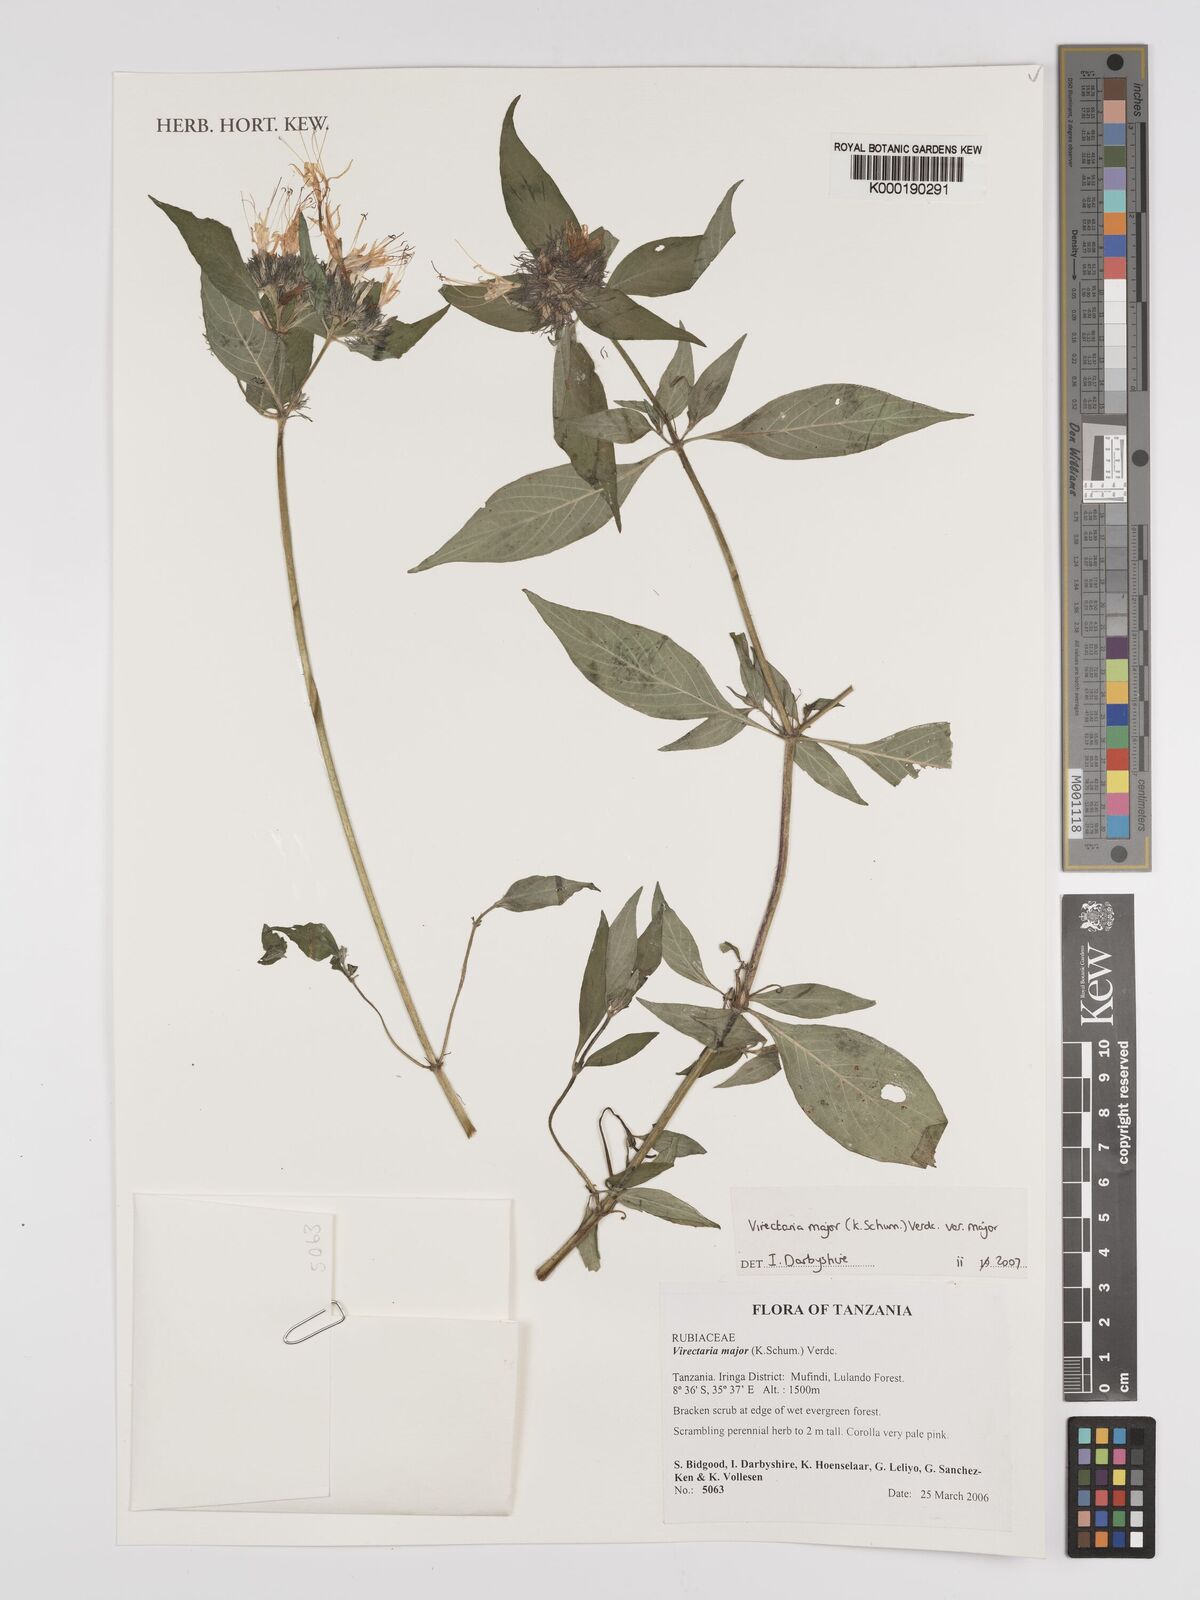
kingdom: Plantae
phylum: Tracheophyta
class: Magnoliopsida
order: Gentianales
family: Rubiaceae
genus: Virectaria
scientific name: Virectaria major
